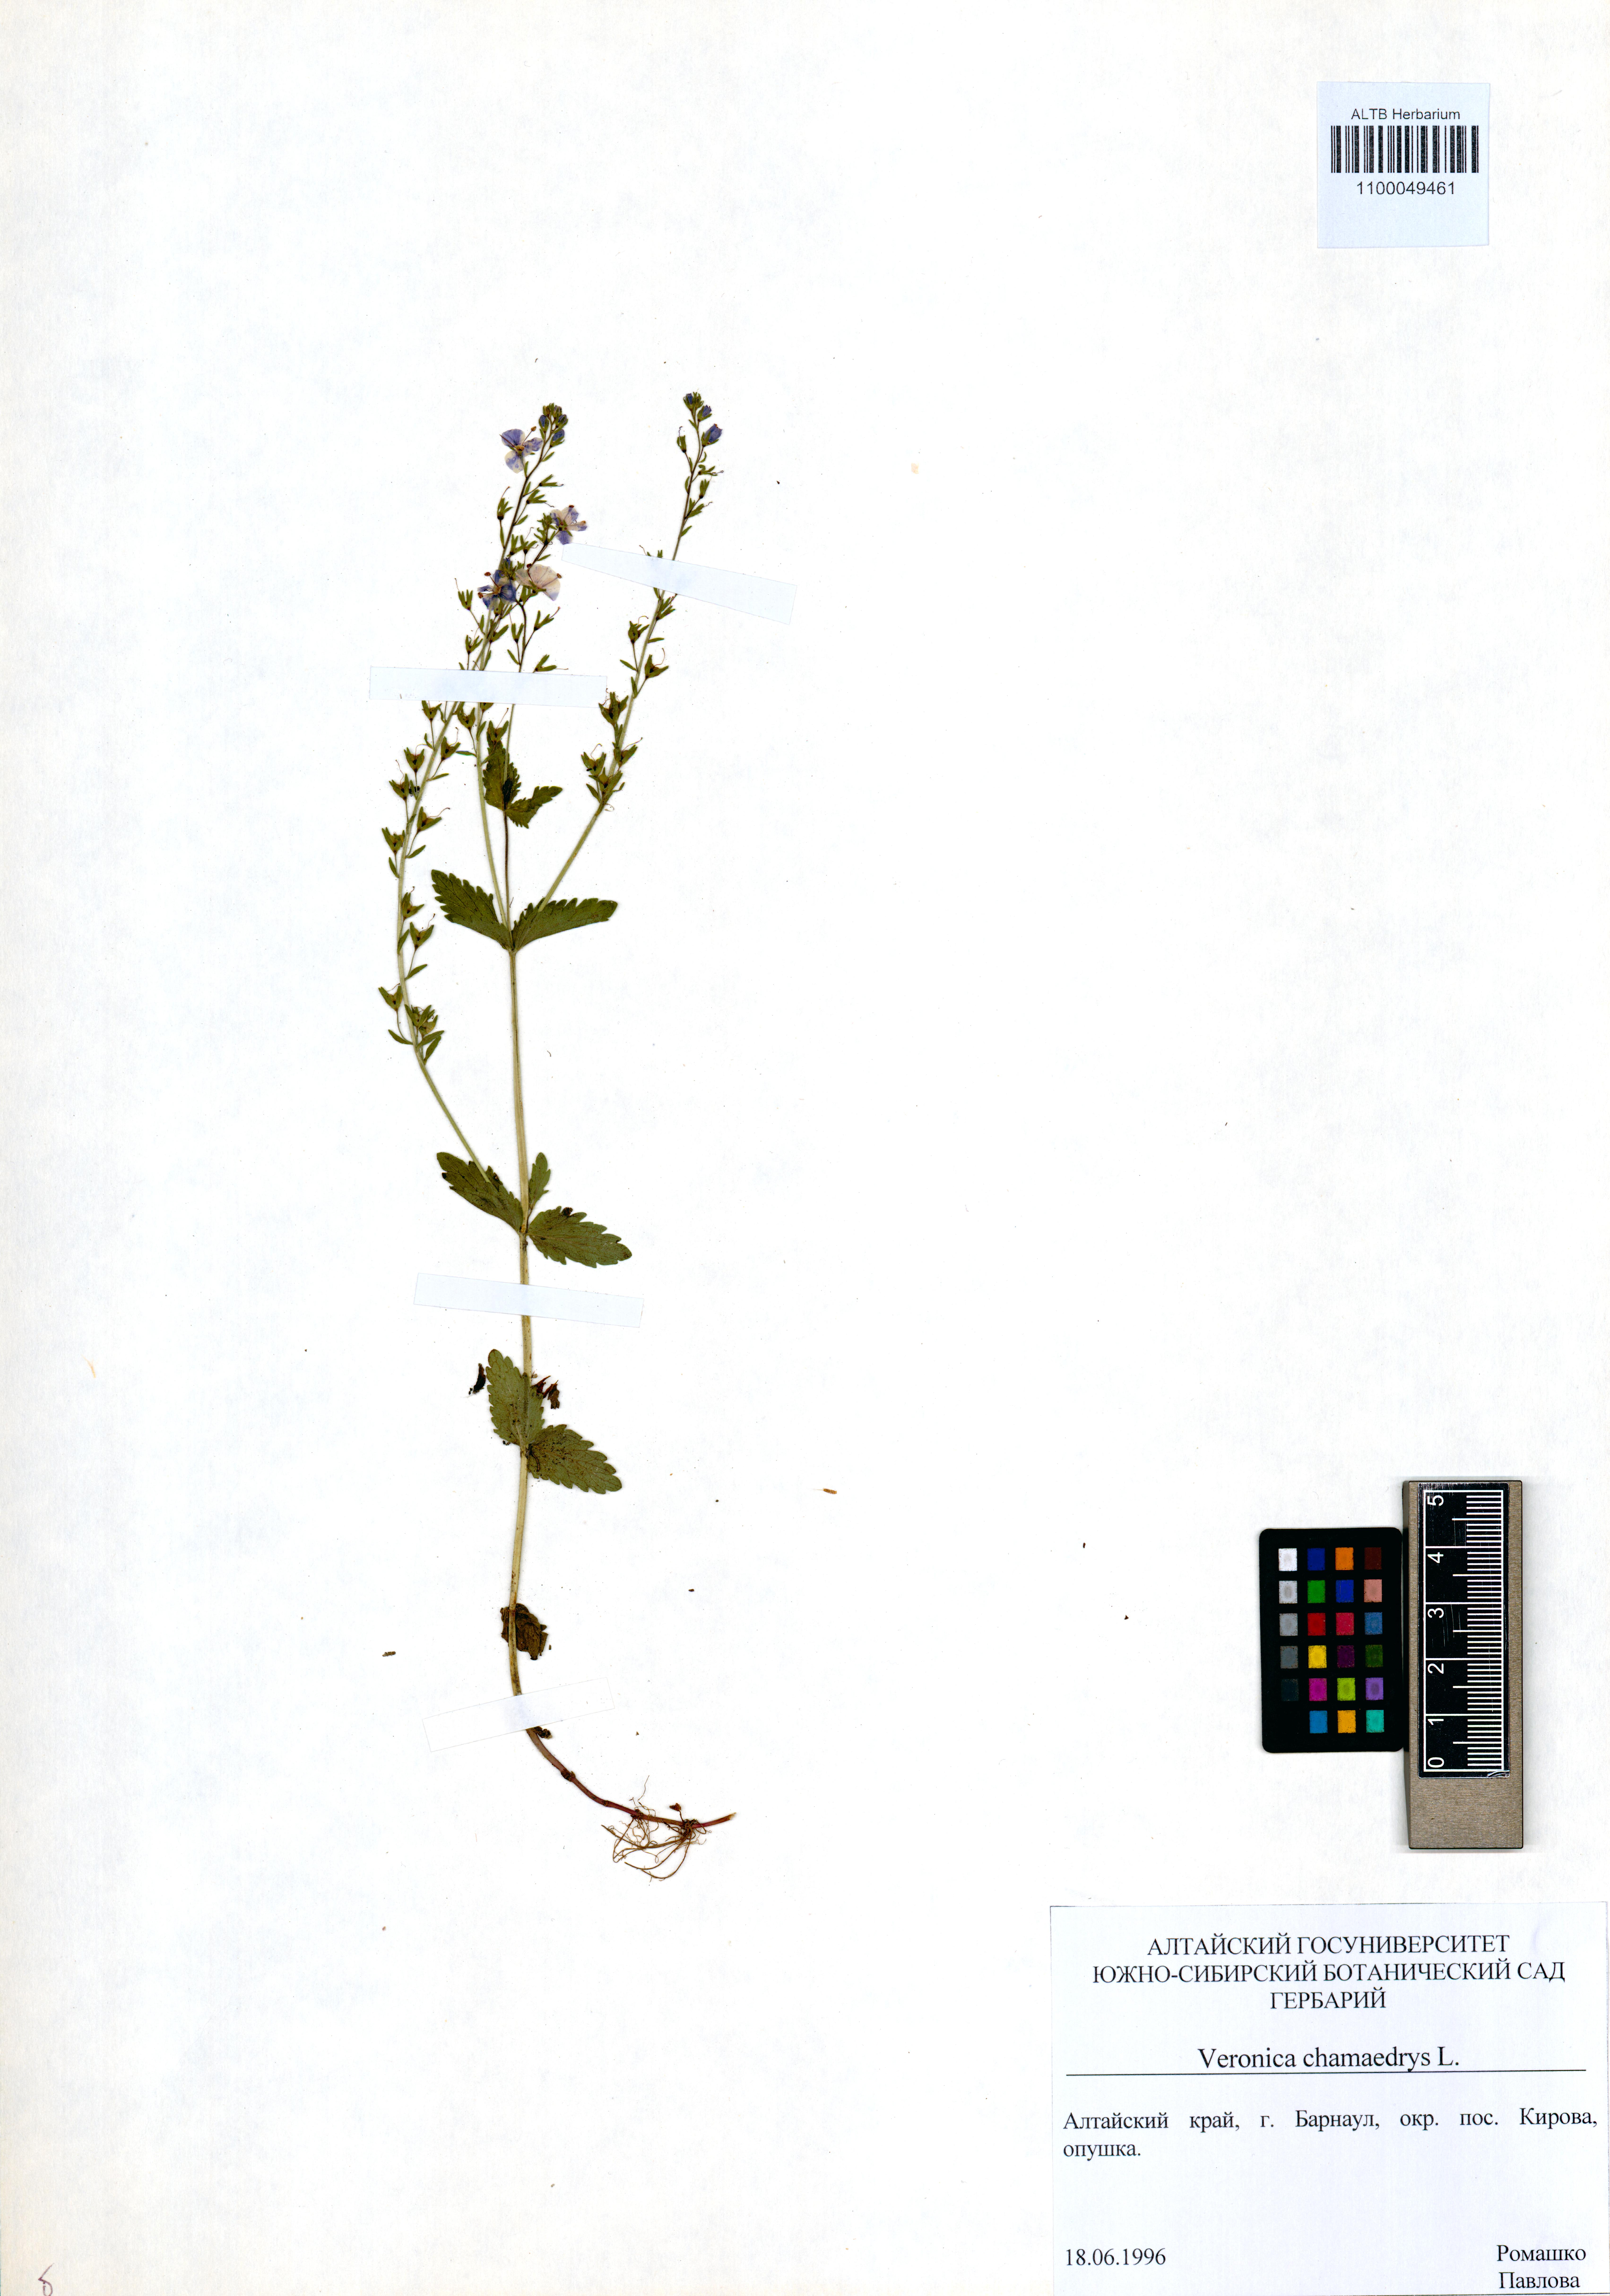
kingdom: Plantae
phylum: Tracheophyta
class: Magnoliopsida
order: Lamiales
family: Plantaginaceae
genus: Veronica
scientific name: Veronica chamaedrys
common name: Germander speedwell
